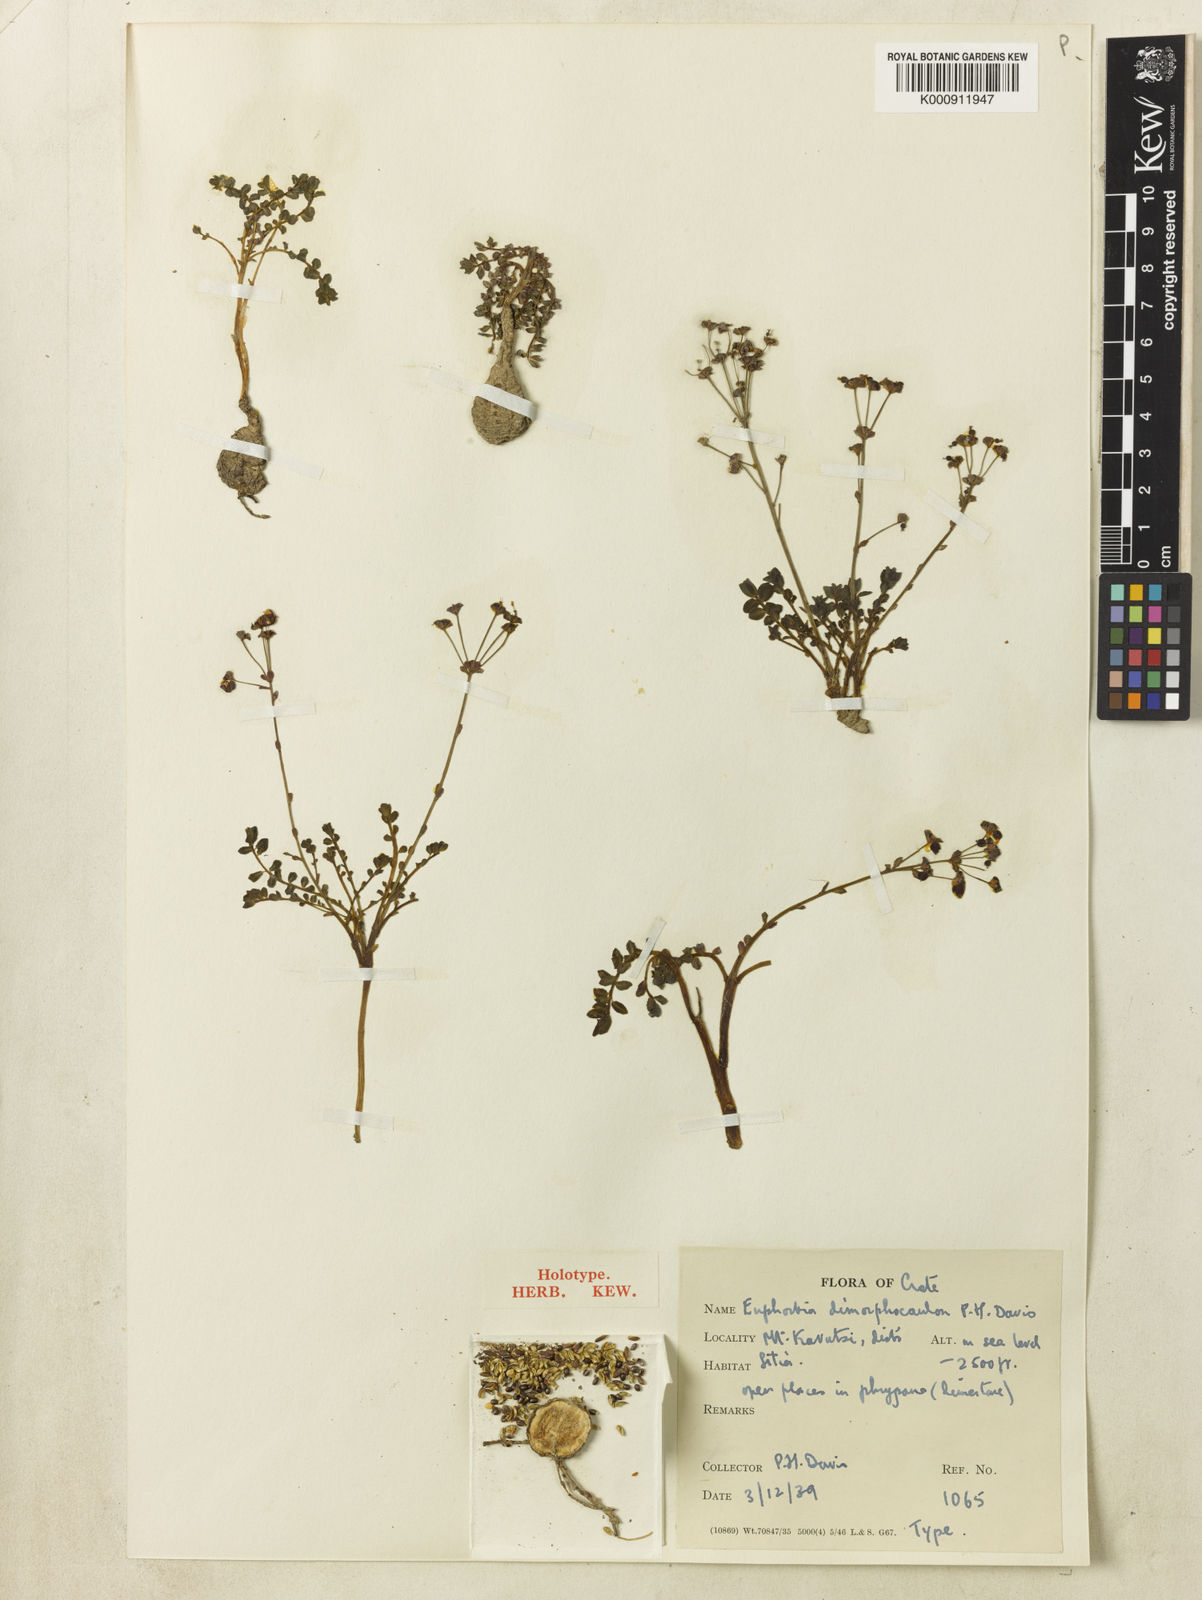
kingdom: Plantae
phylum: Tracheophyta
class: Magnoliopsida
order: Malpighiales
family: Euphorbiaceae
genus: Euphorbia
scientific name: Euphorbia dimorphocaulon
